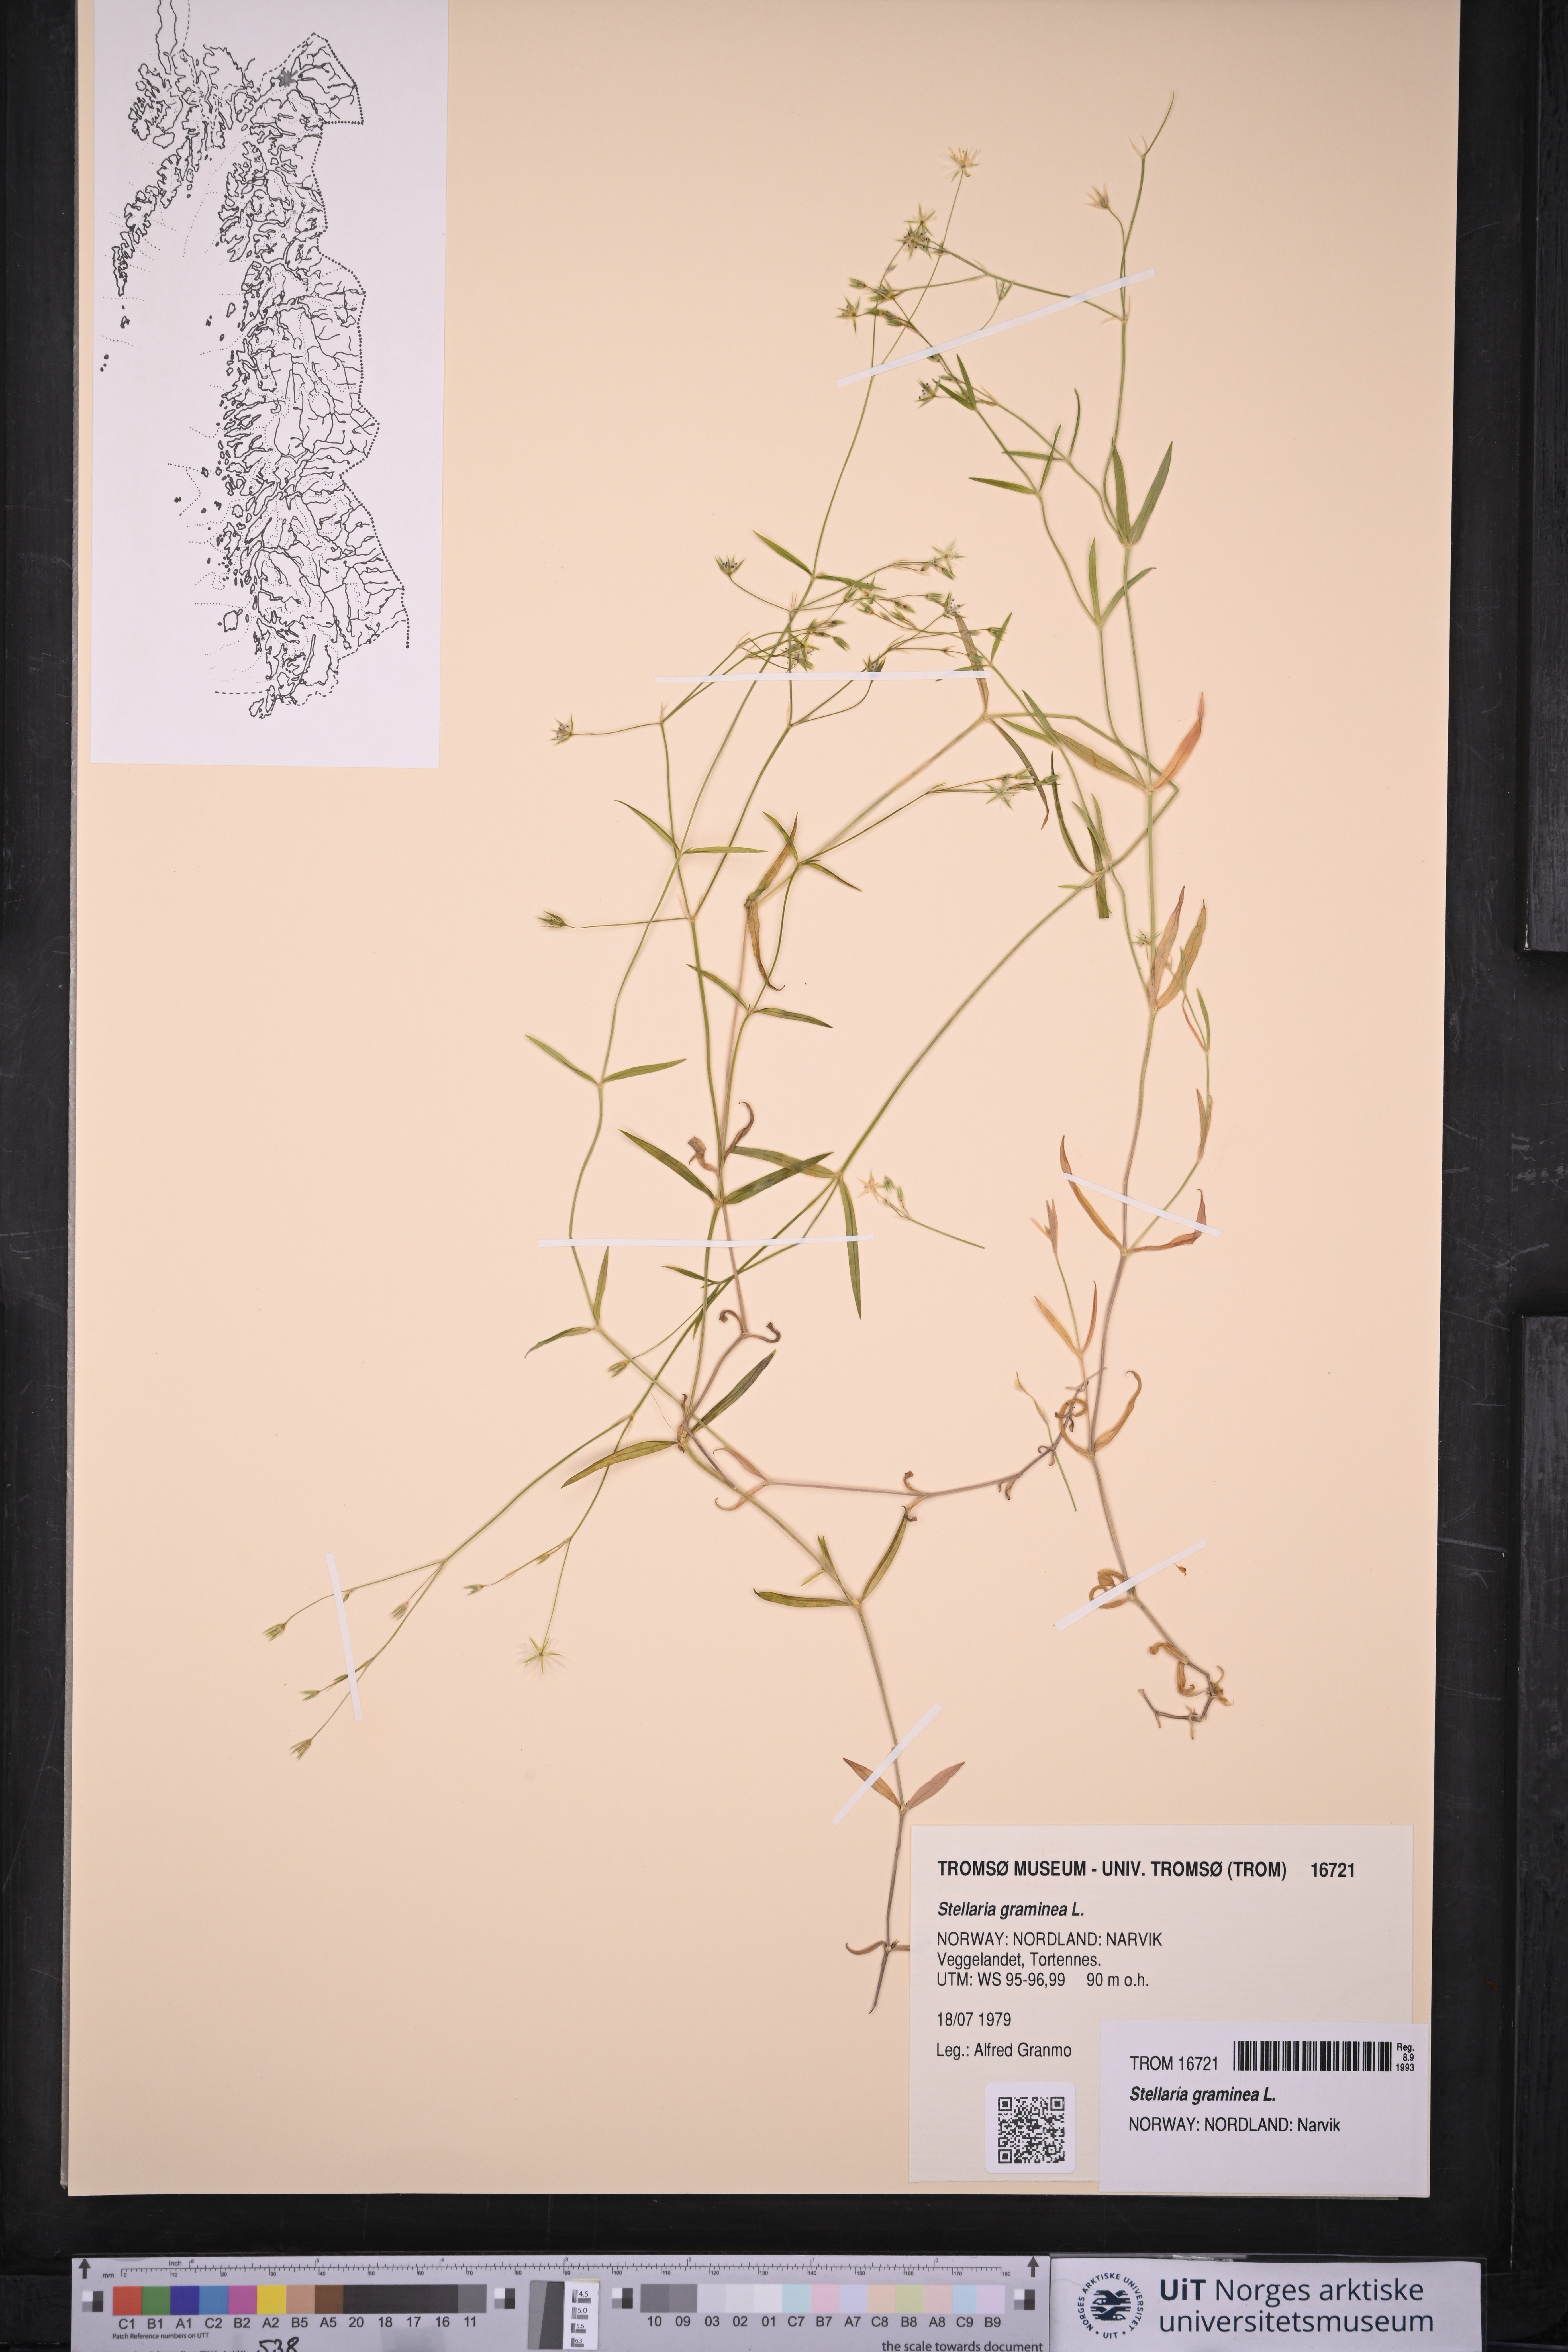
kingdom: Plantae
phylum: Tracheophyta
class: Magnoliopsida
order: Caryophyllales
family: Caryophyllaceae
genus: Stellaria
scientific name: Stellaria graminea
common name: Grass-like starwort
